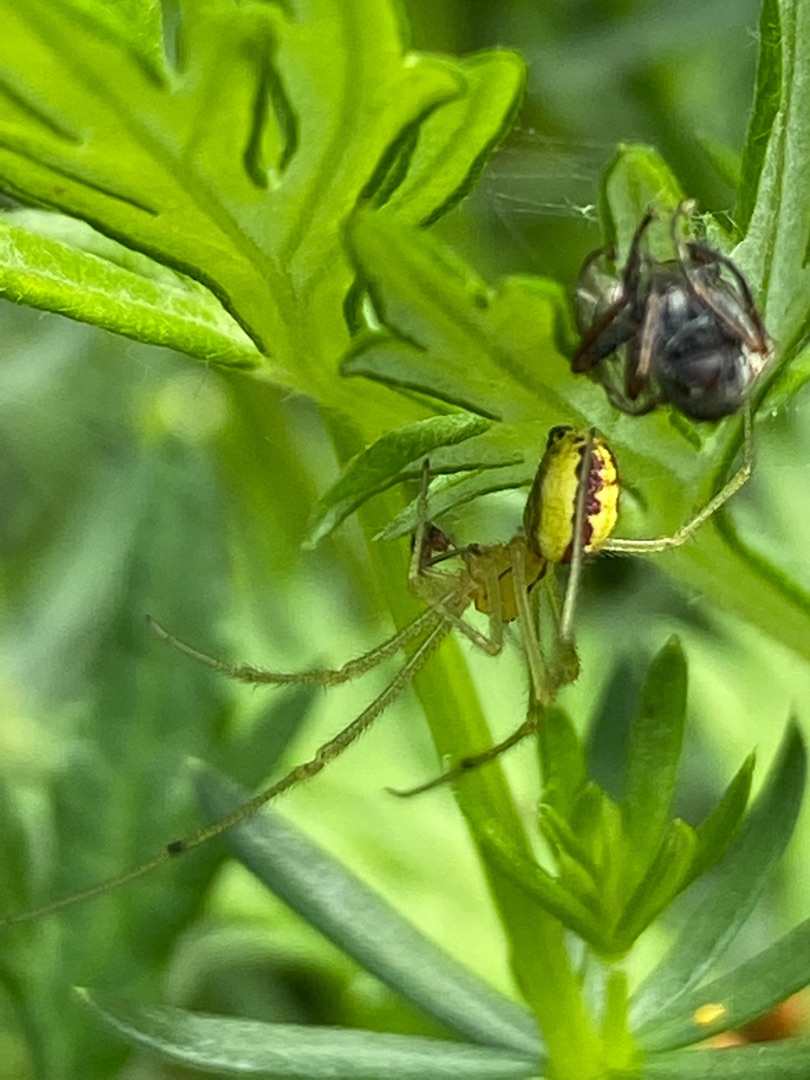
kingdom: Animalia
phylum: Arthropoda
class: Arachnida
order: Araneae
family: Theridiidae
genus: Enoplognatha
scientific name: Enoplognatha
